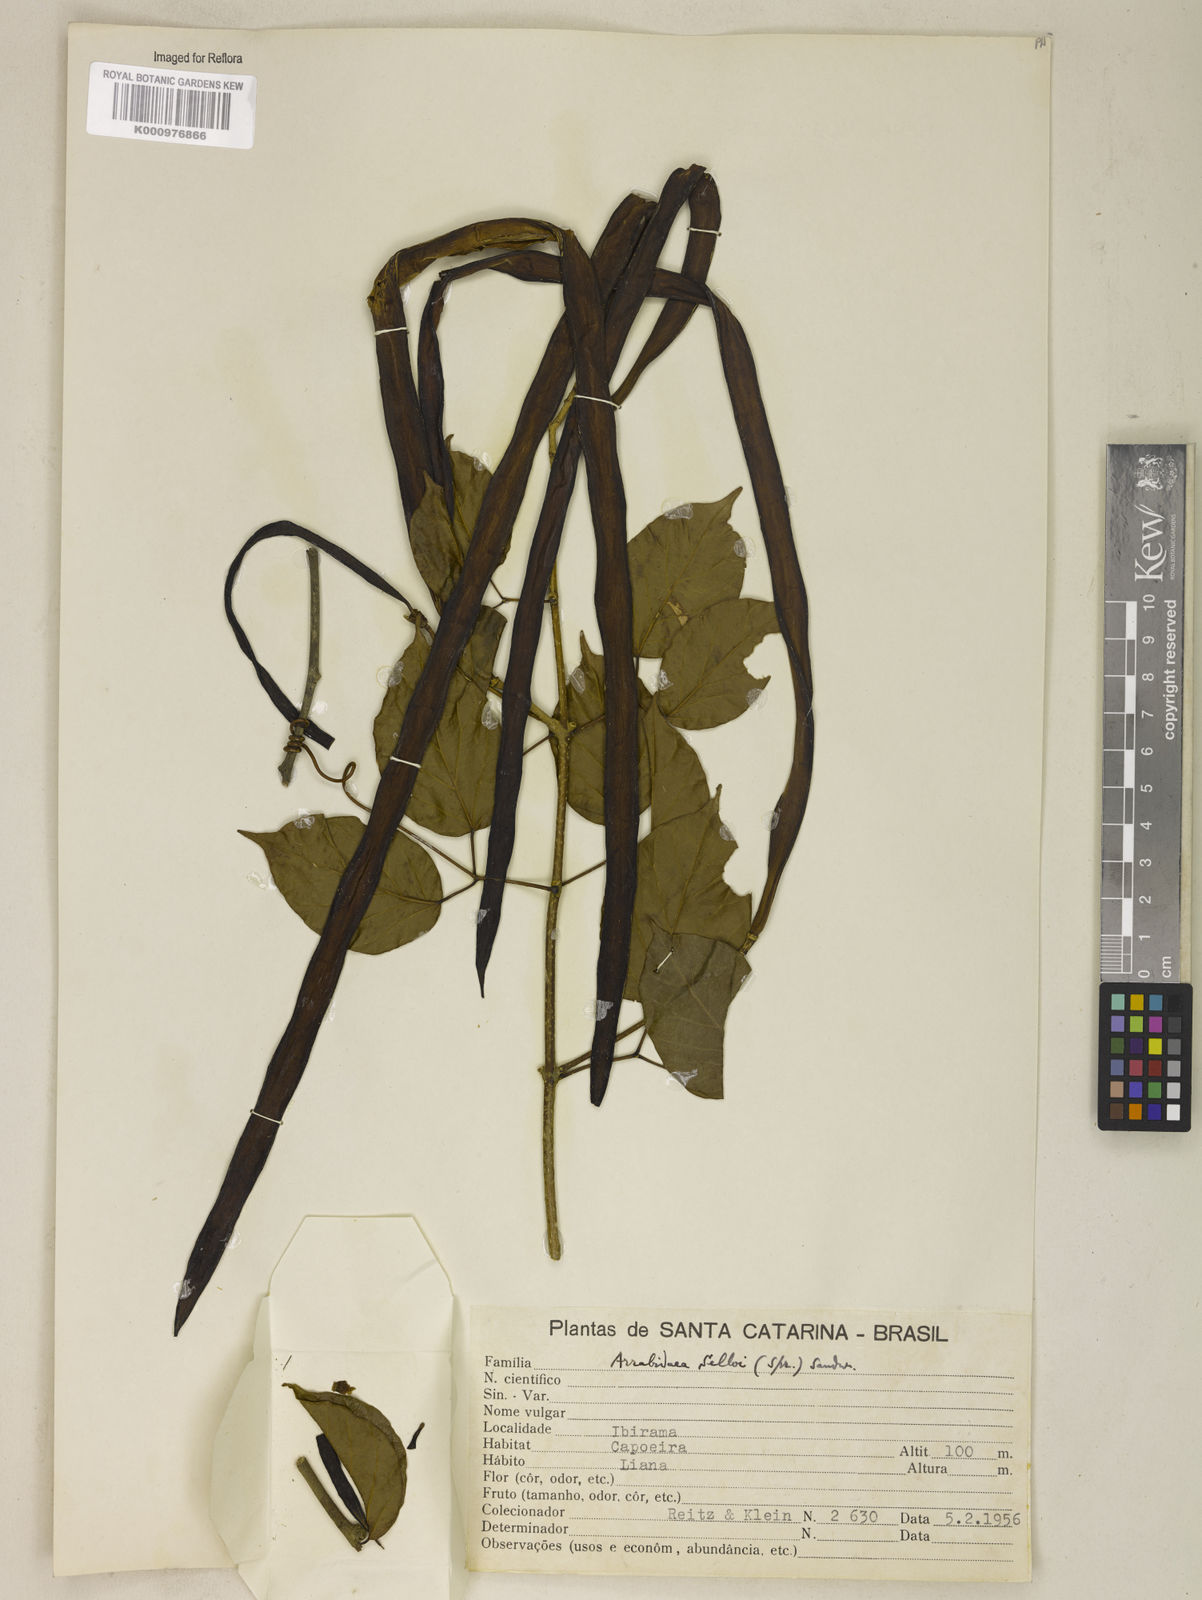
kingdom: Plantae
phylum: Tracheophyta
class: Magnoliopsida
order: Lamiales
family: Bignoniaceae
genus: Tanaecium
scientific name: Tanaecium selloi
